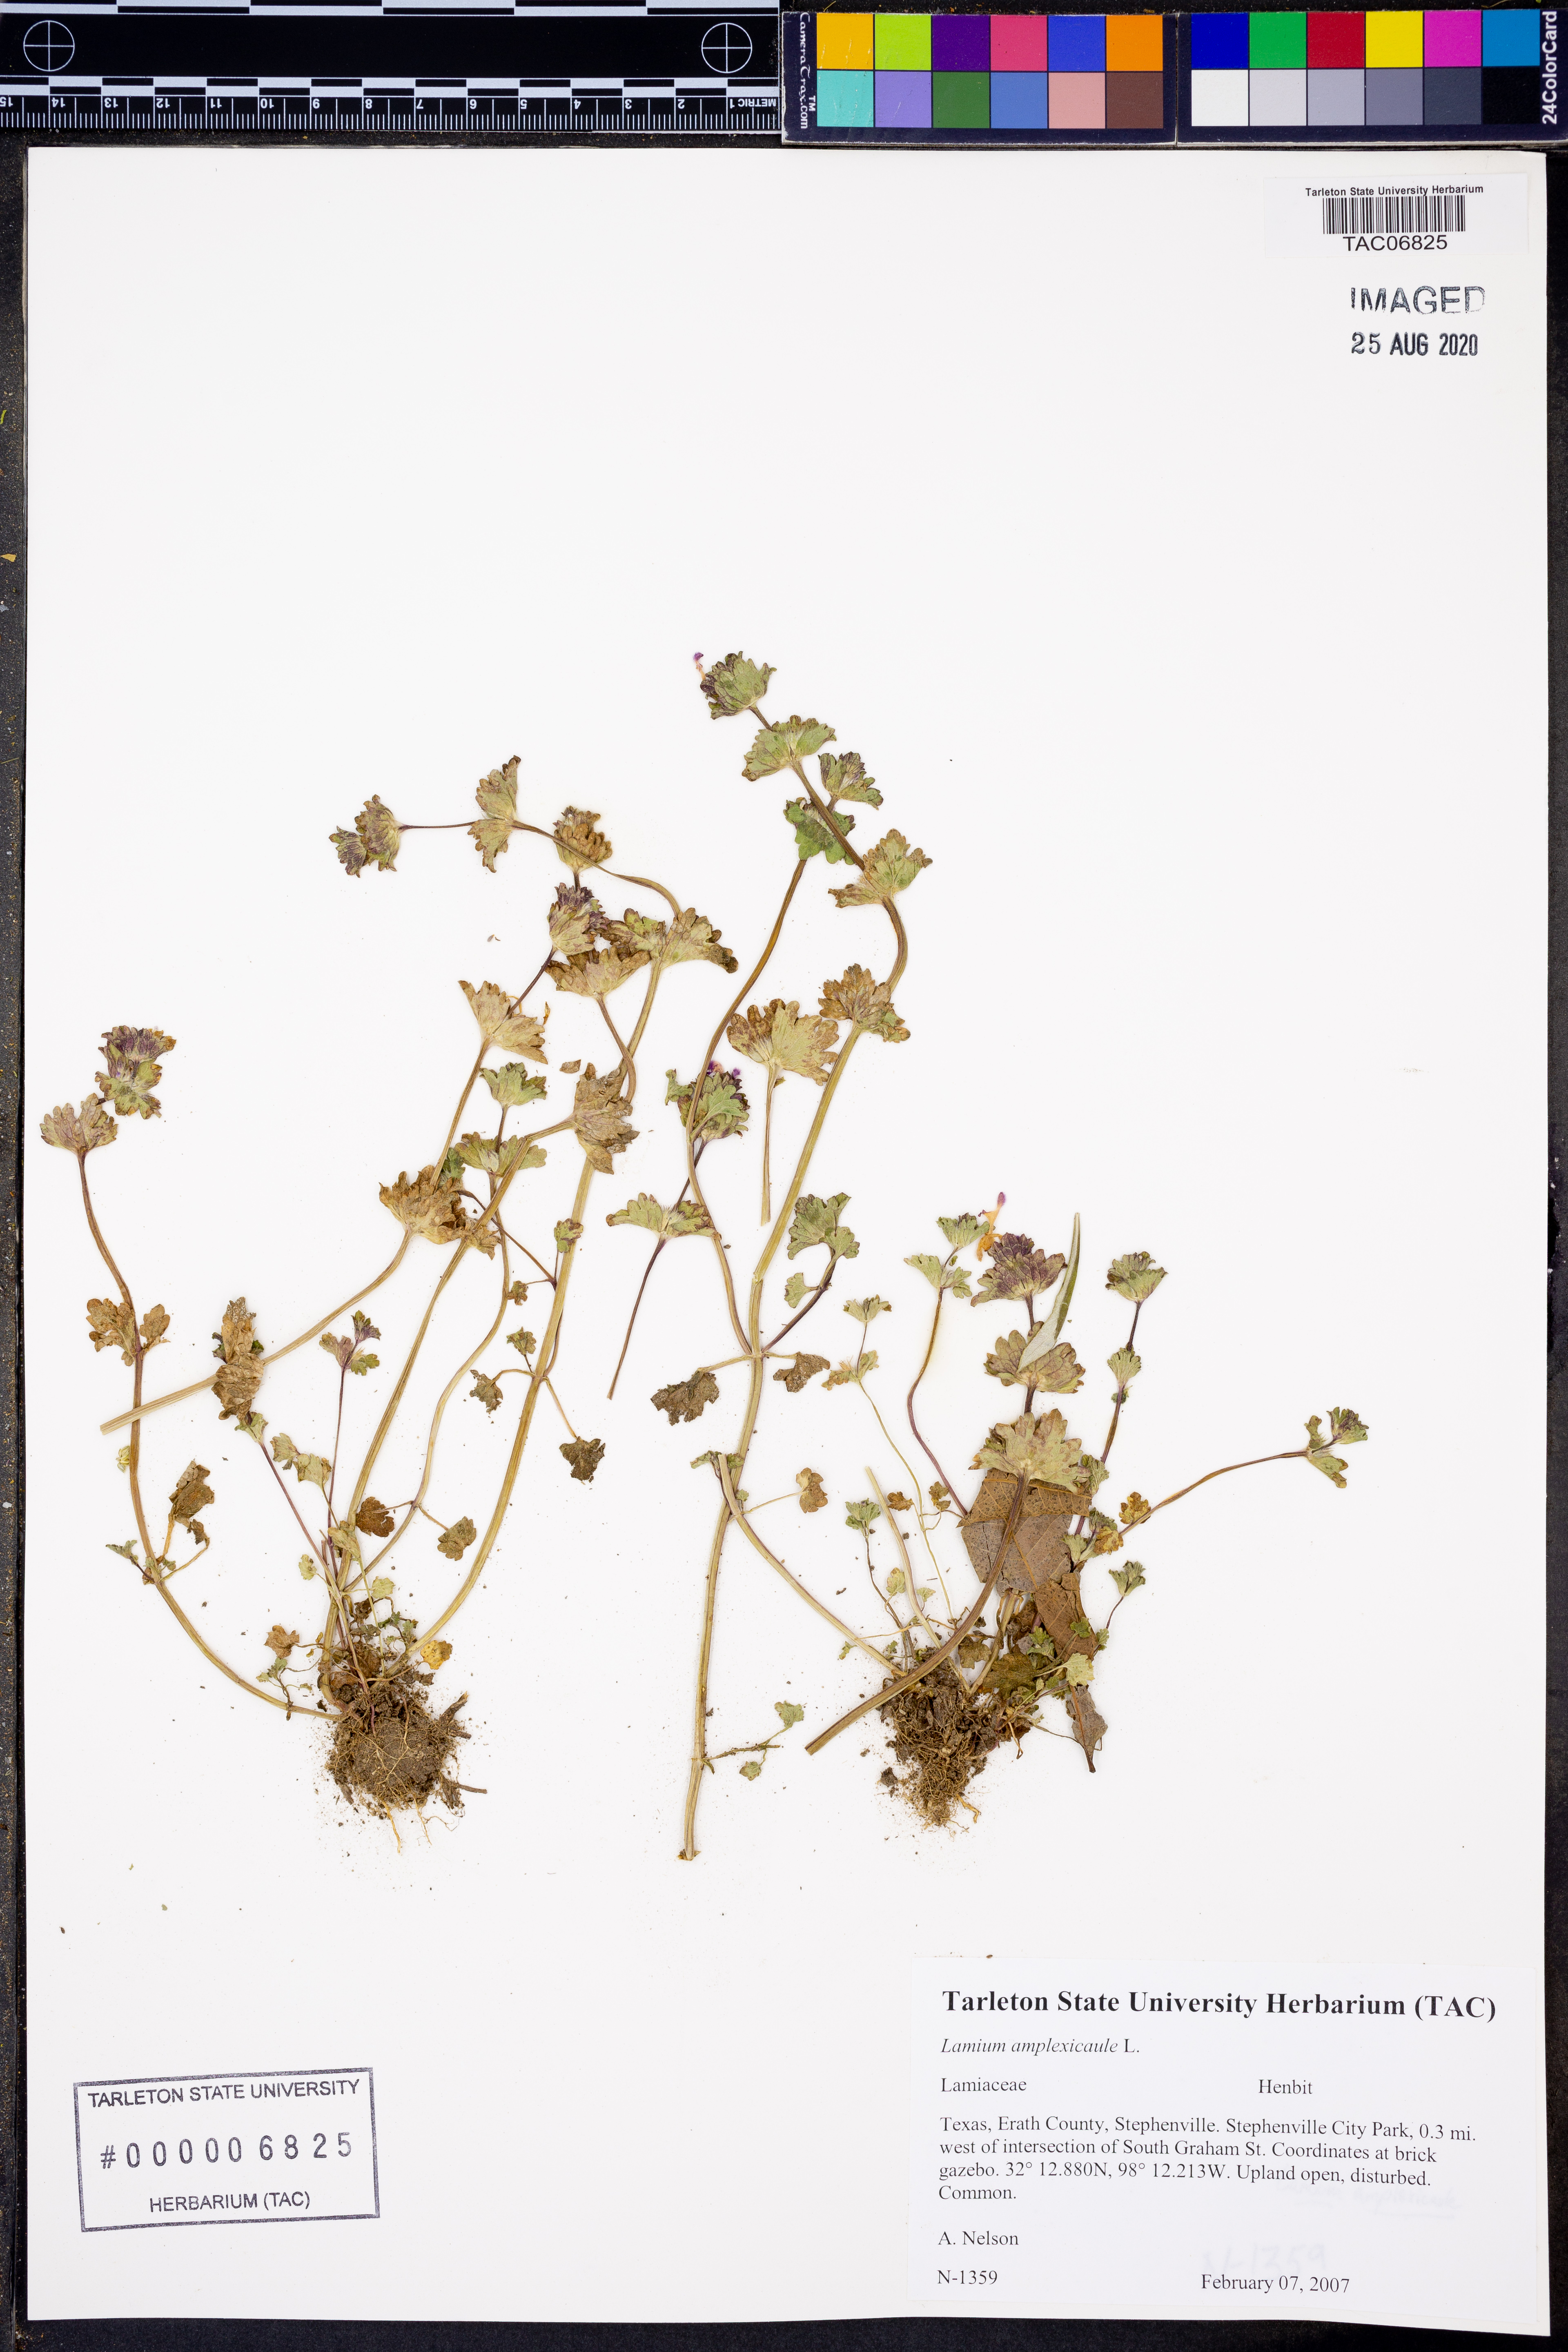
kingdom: Plantae
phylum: Tracheophyta
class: Magnoliopsida
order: Lamiales
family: Lamiaceae
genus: Lamium
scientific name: Lamium amplexicaule
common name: Henbit dead-nettle
